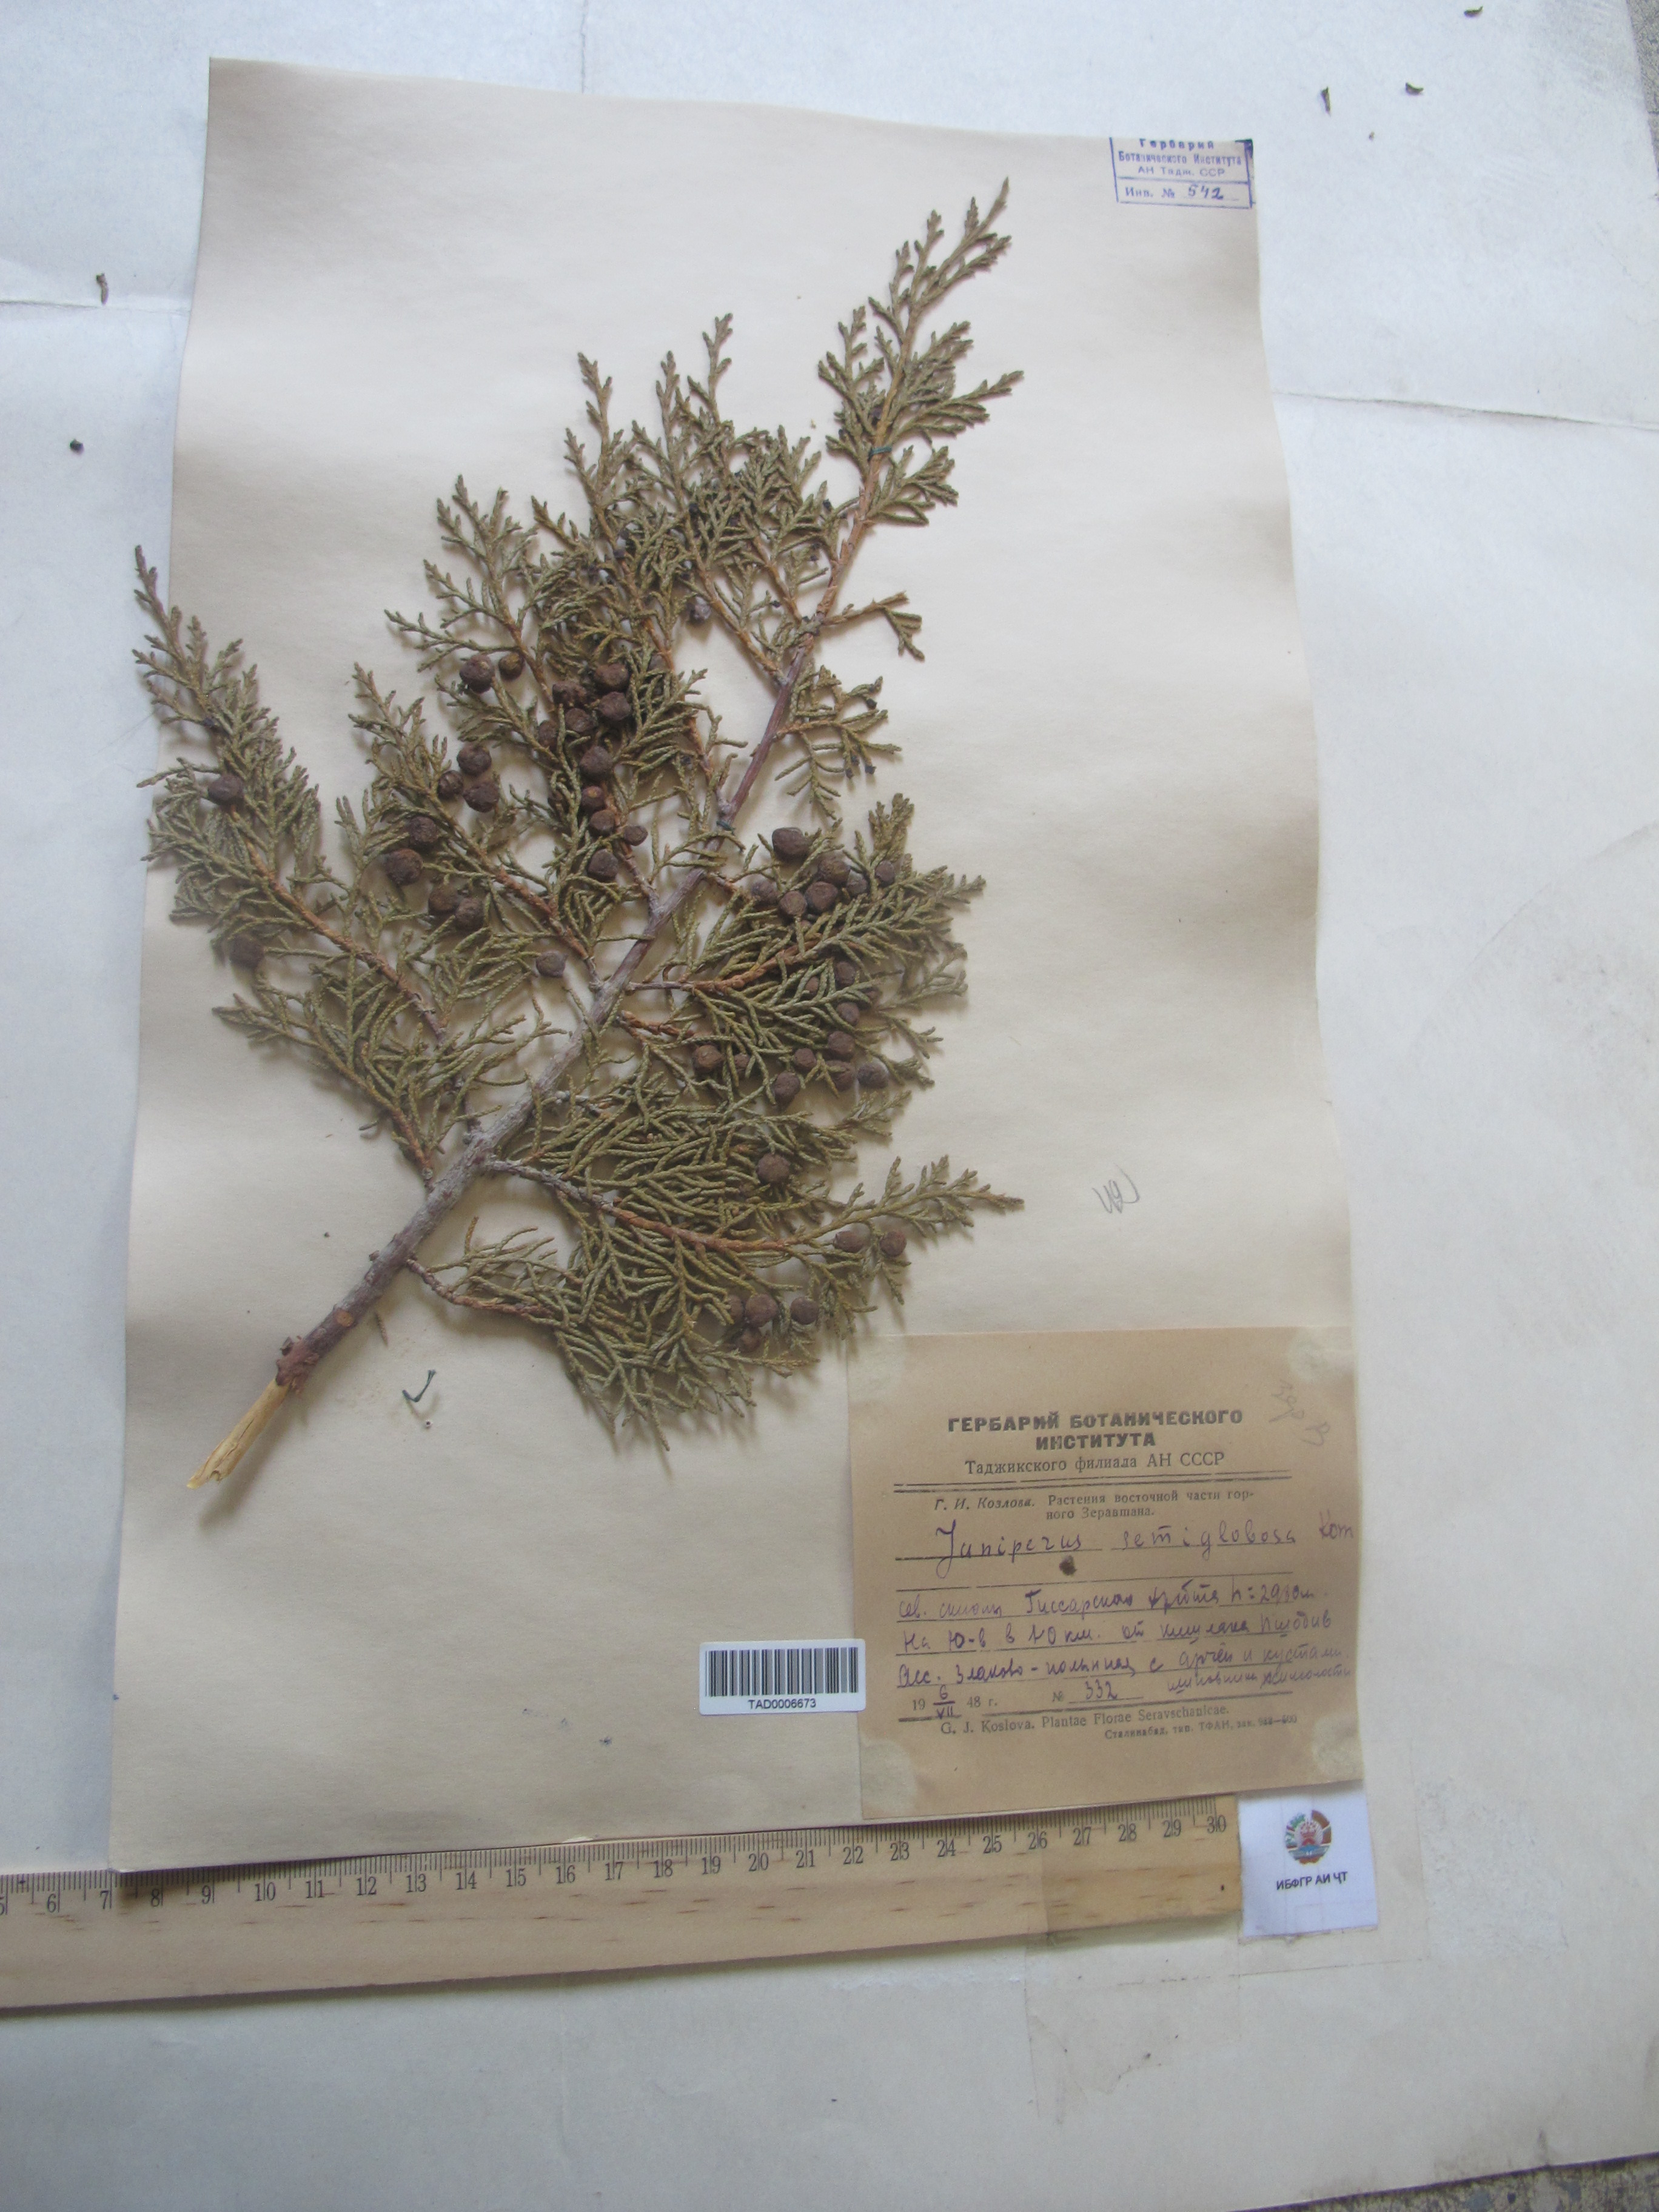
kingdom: Plantae
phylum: Tracheophyta
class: Pinopsida
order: Pinales
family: Cupressaceae
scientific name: Cupressaceae
